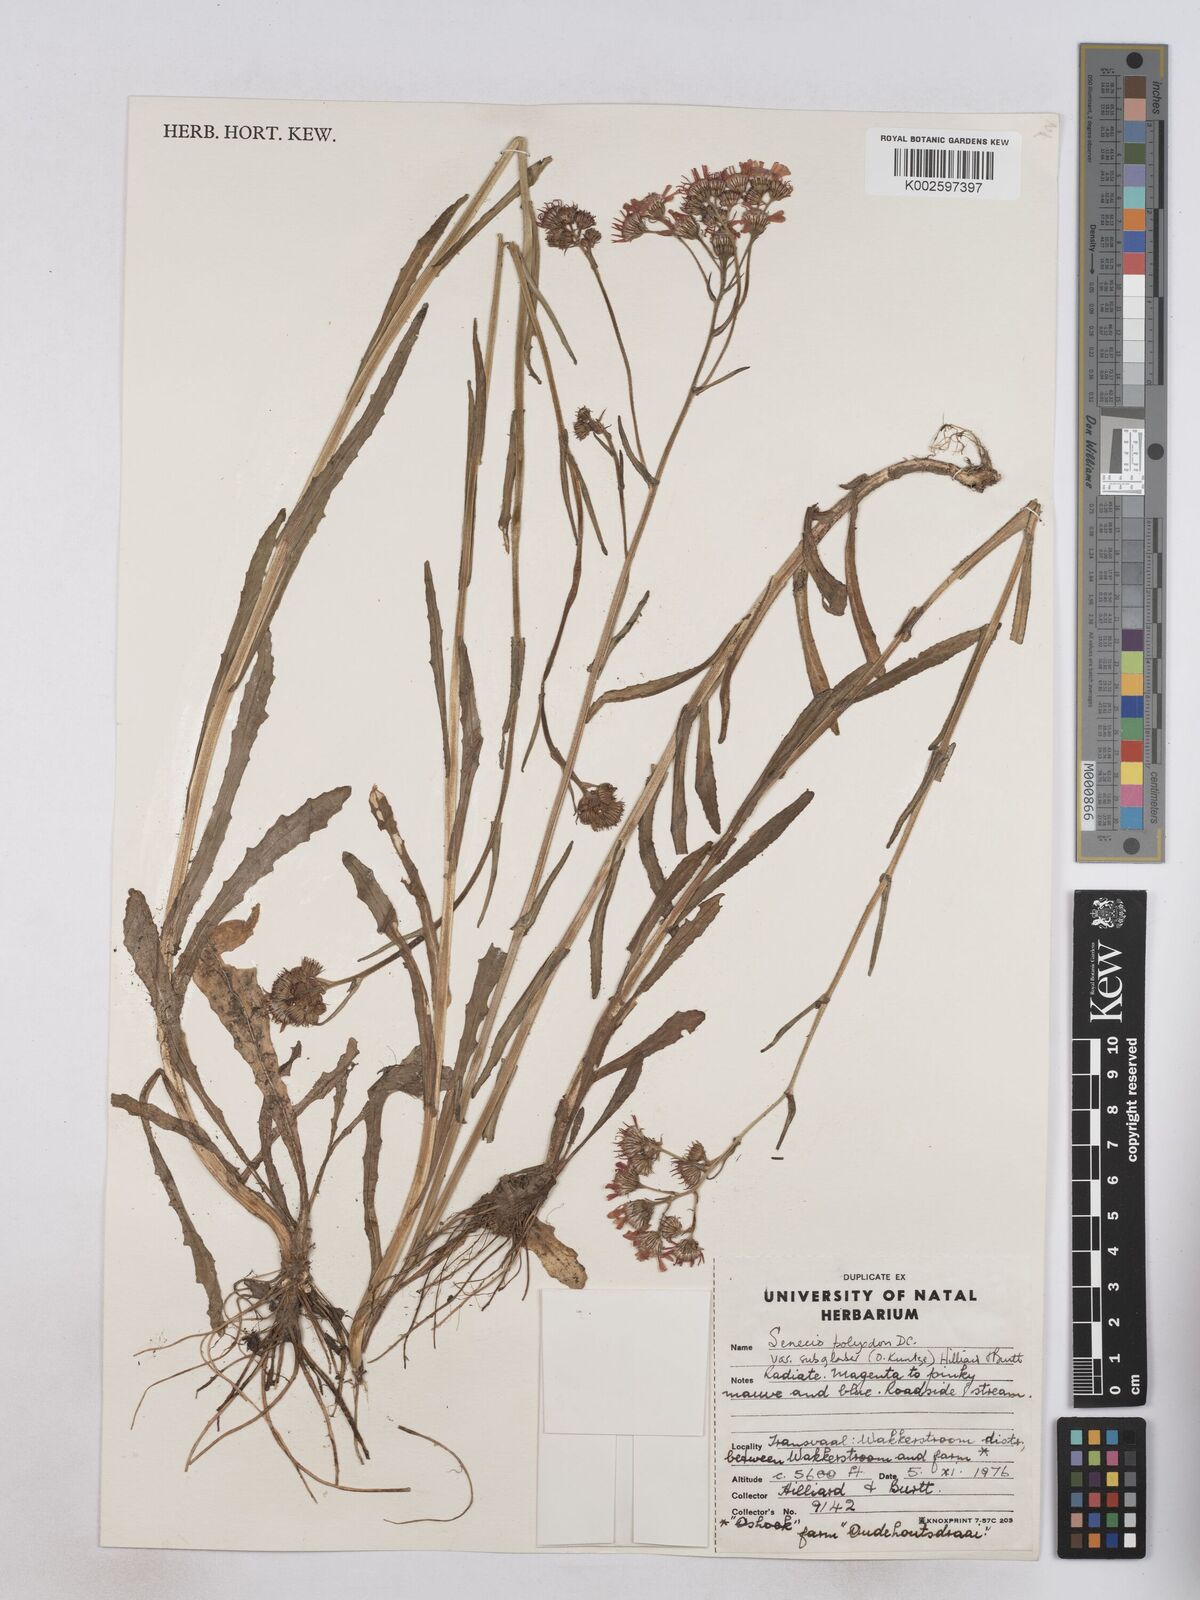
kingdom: Plantae
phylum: Tracheophyta
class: Magnoliopsida
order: Asterales
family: Asteraceae
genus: Senecio
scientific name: Senecio polyodon
